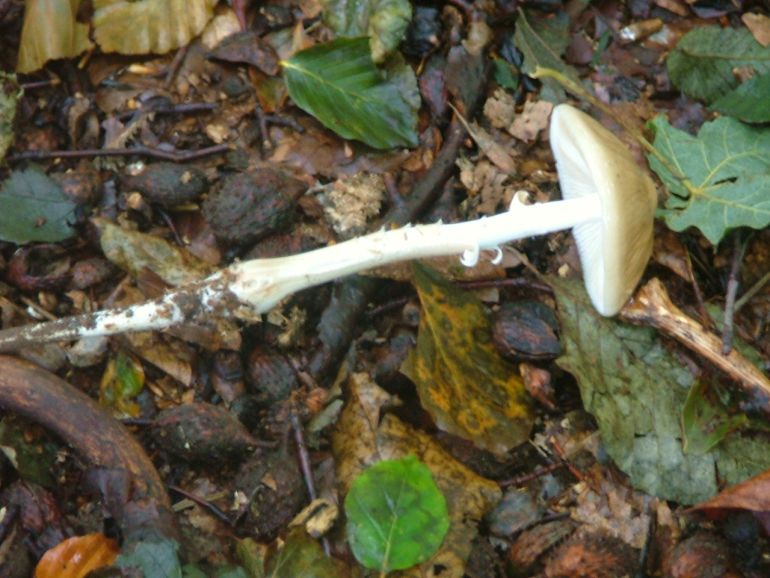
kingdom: Fungi
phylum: Basidiomycota
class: Agaricomycetes
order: Agaricales
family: Physalacriaceae
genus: Hymenopellis
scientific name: Hymenopellis radicata
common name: almindelig pælerodshat
